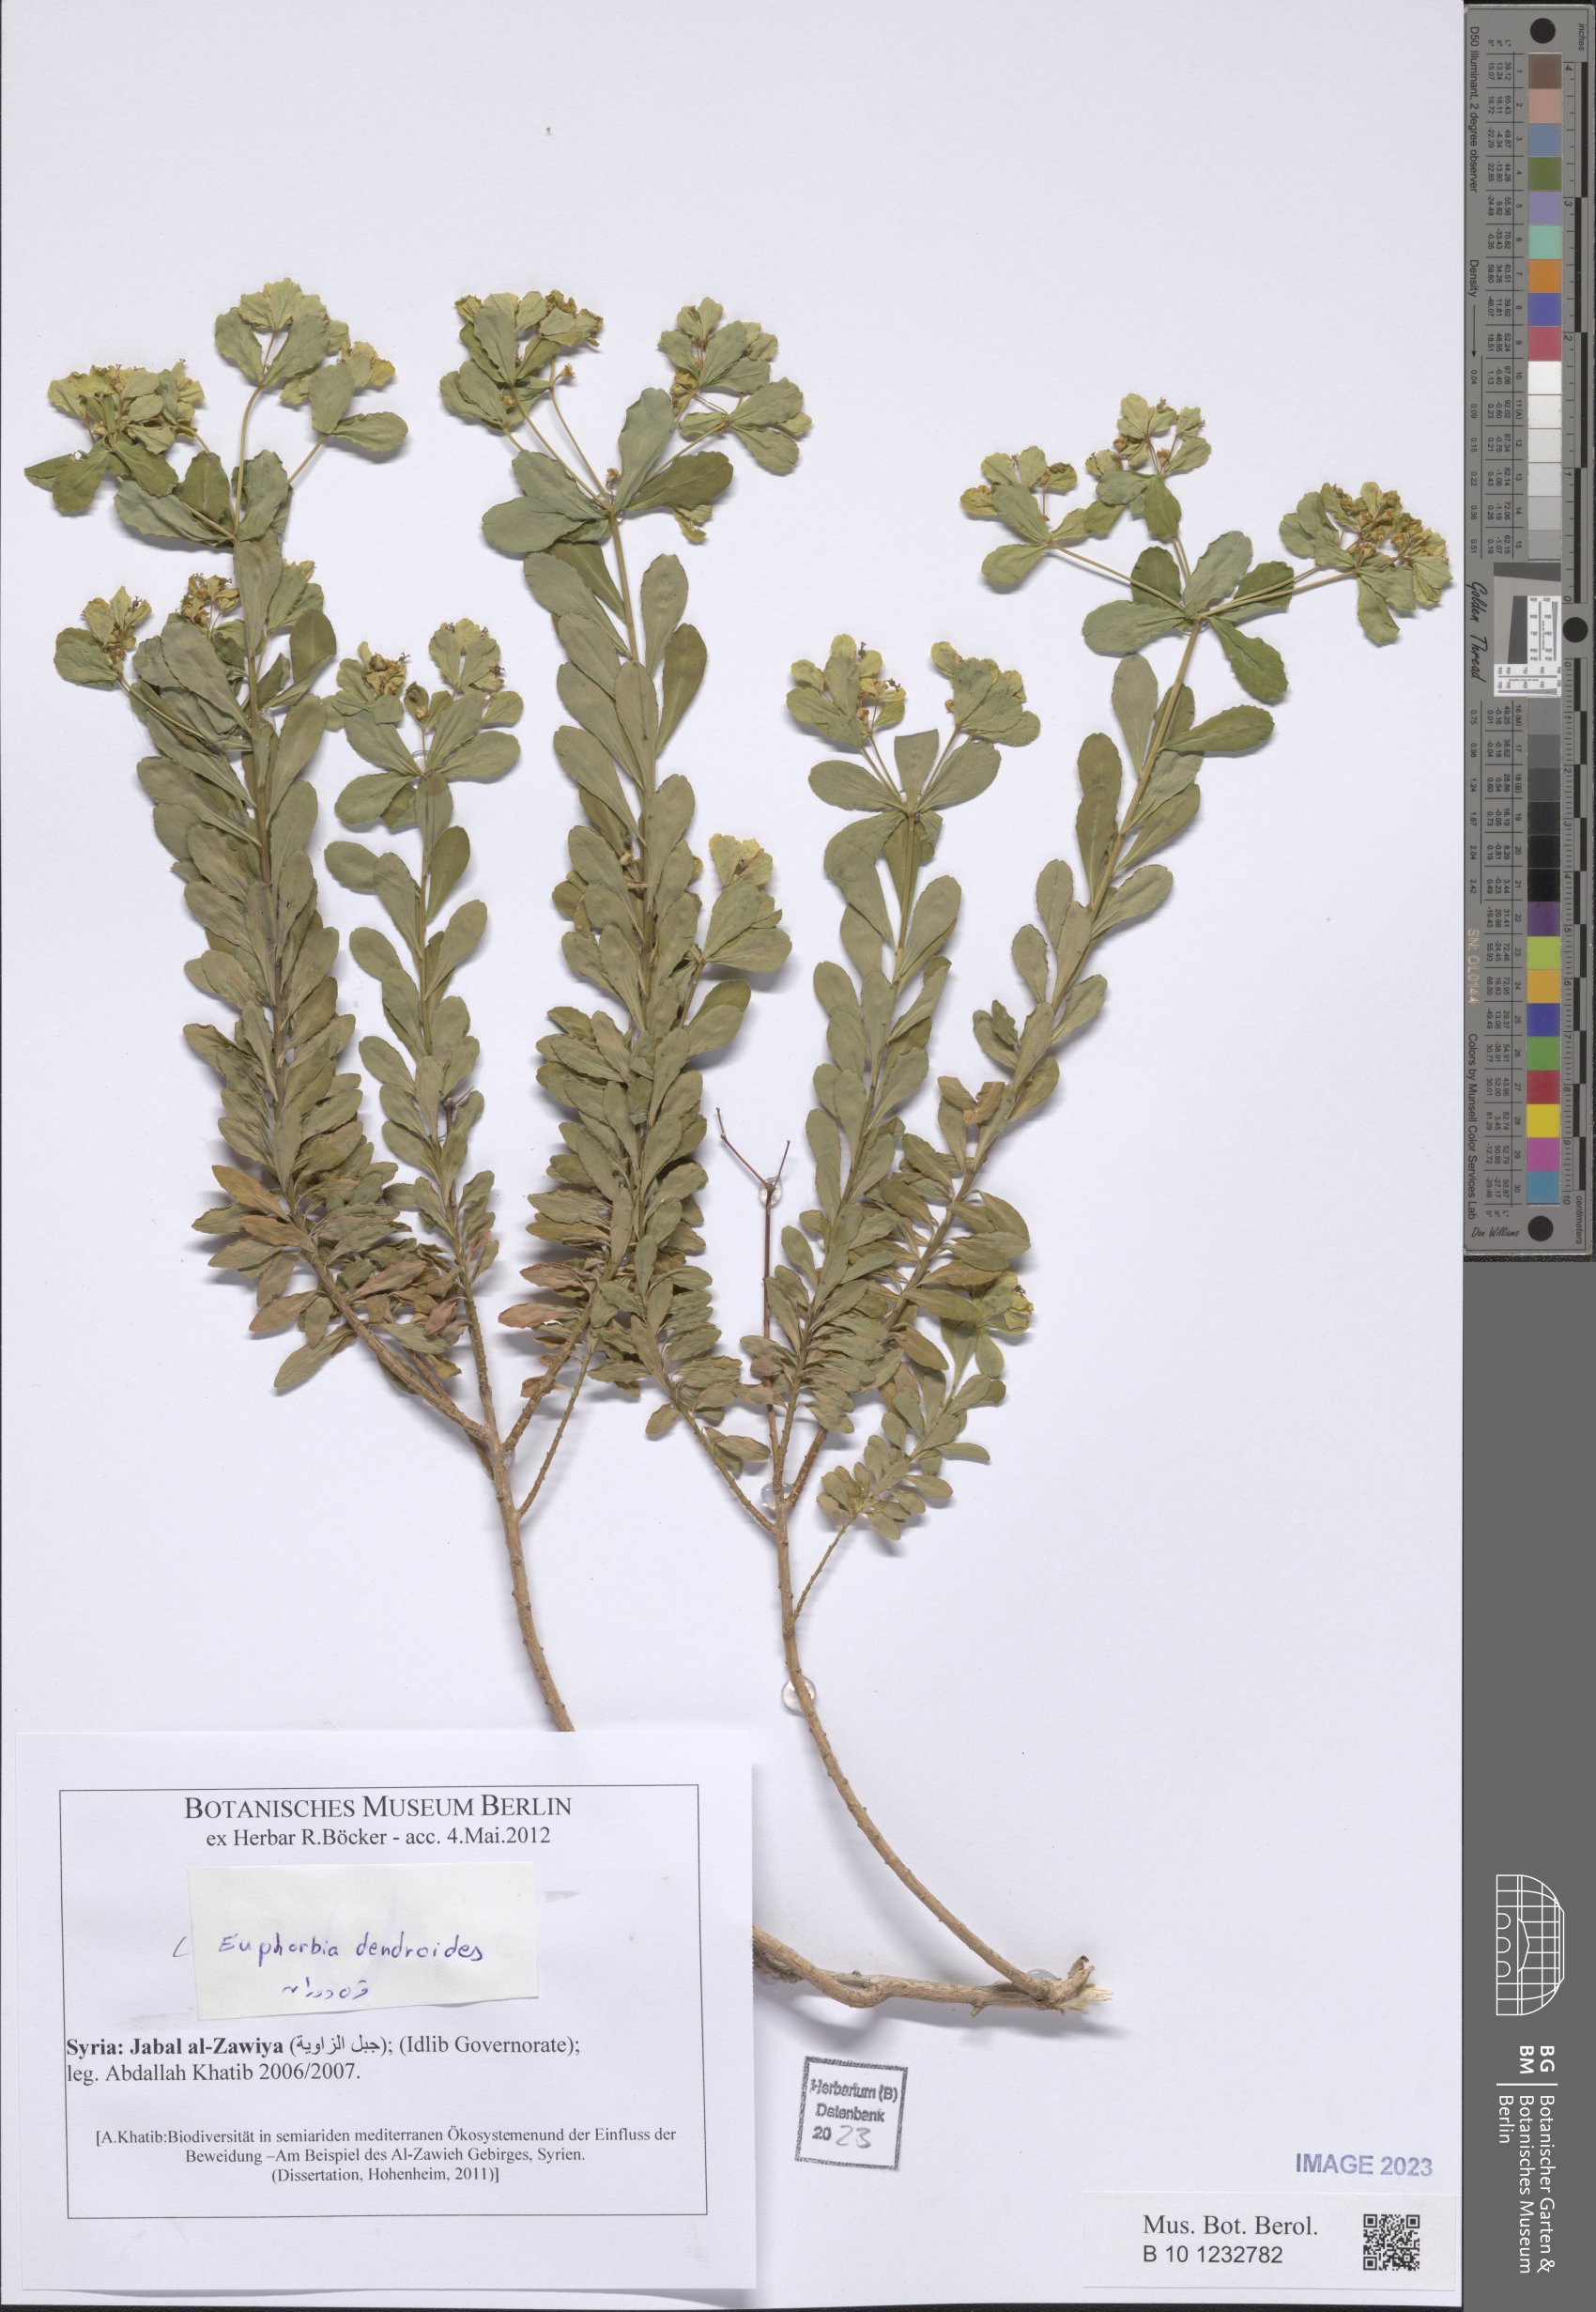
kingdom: Plantae
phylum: Tracheophyta
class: Magnoliopsida
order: Malpighiales
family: Euphorbiaceae
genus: Euphorbia
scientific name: Euphorbia dendroides
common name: Tree spurge
